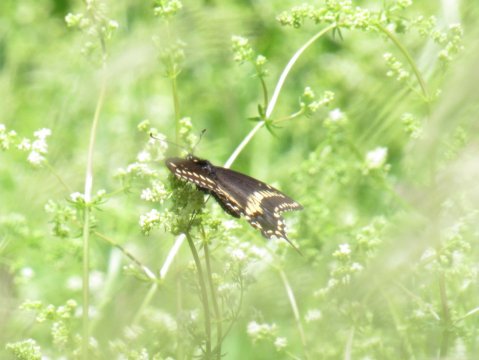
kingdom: Animalia
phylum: Arthropoda
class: Insecta
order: Lepidoptera
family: Papilionidae
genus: Papilio
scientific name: Papilio polyxenes
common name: Black Swallowtail
